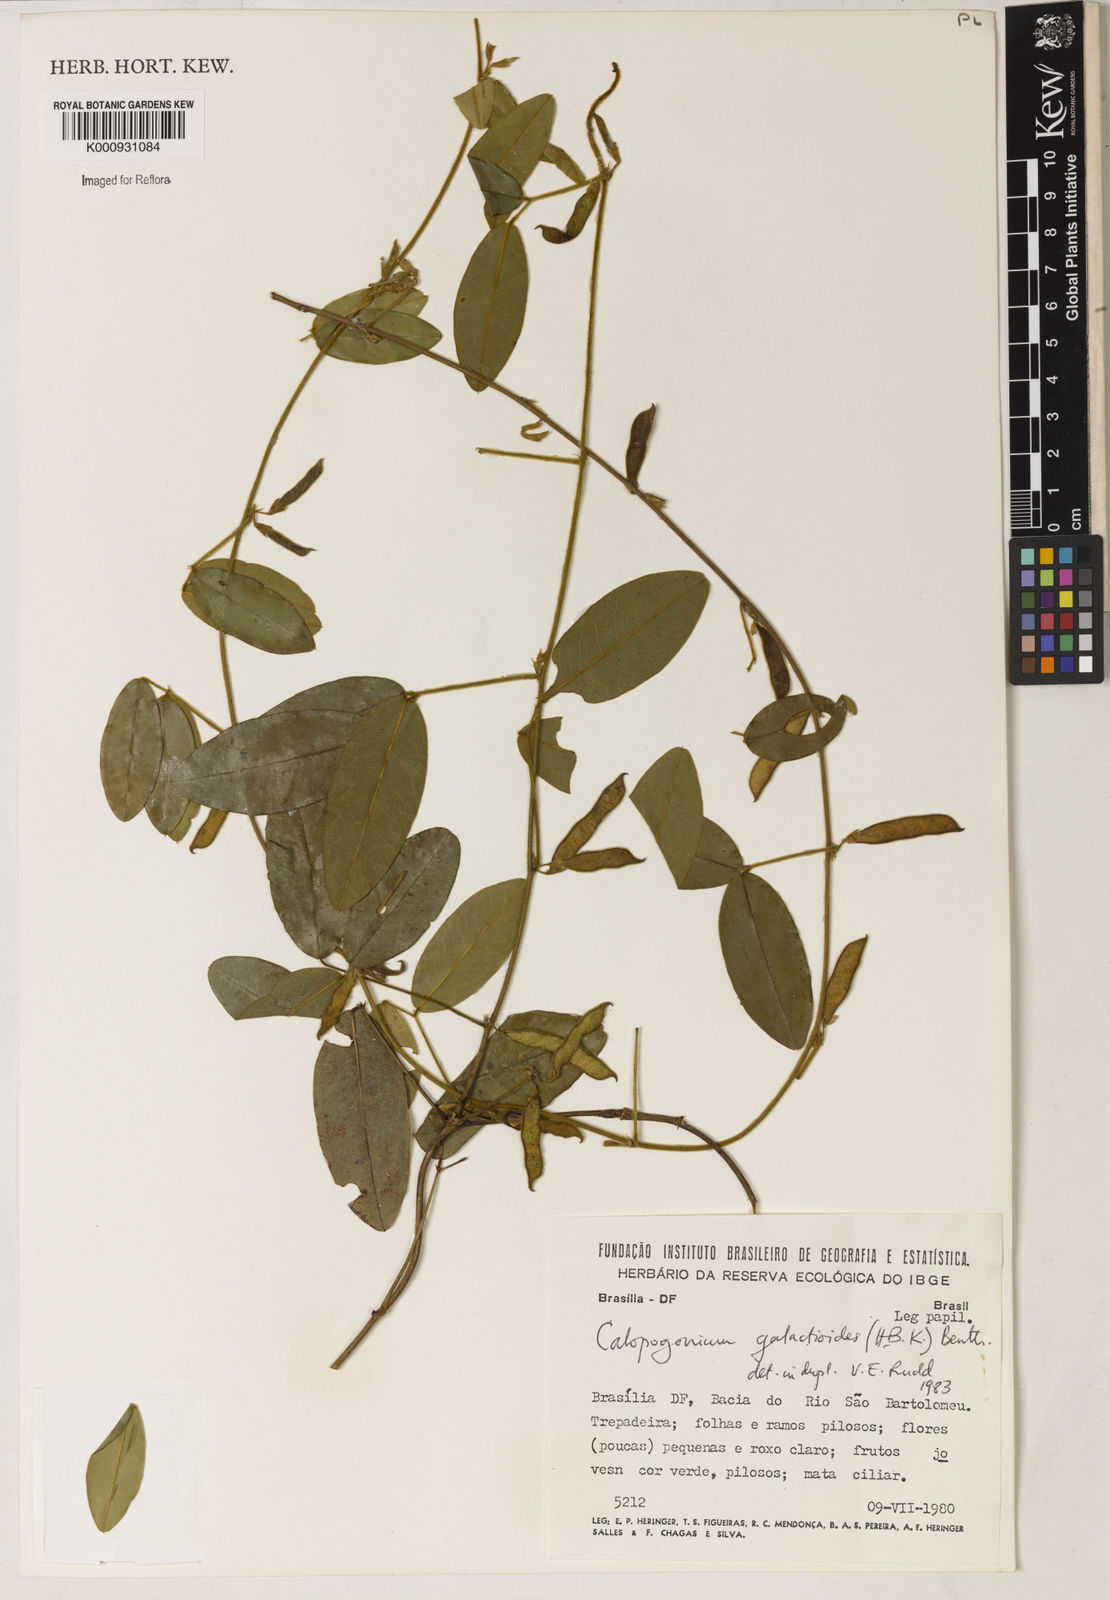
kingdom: Plantae
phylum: Tracheophyta
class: Magnoliopsida
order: Fabales
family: Fabaceae
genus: Calopogonium
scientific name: Calopogonium galactioides
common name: Legume
